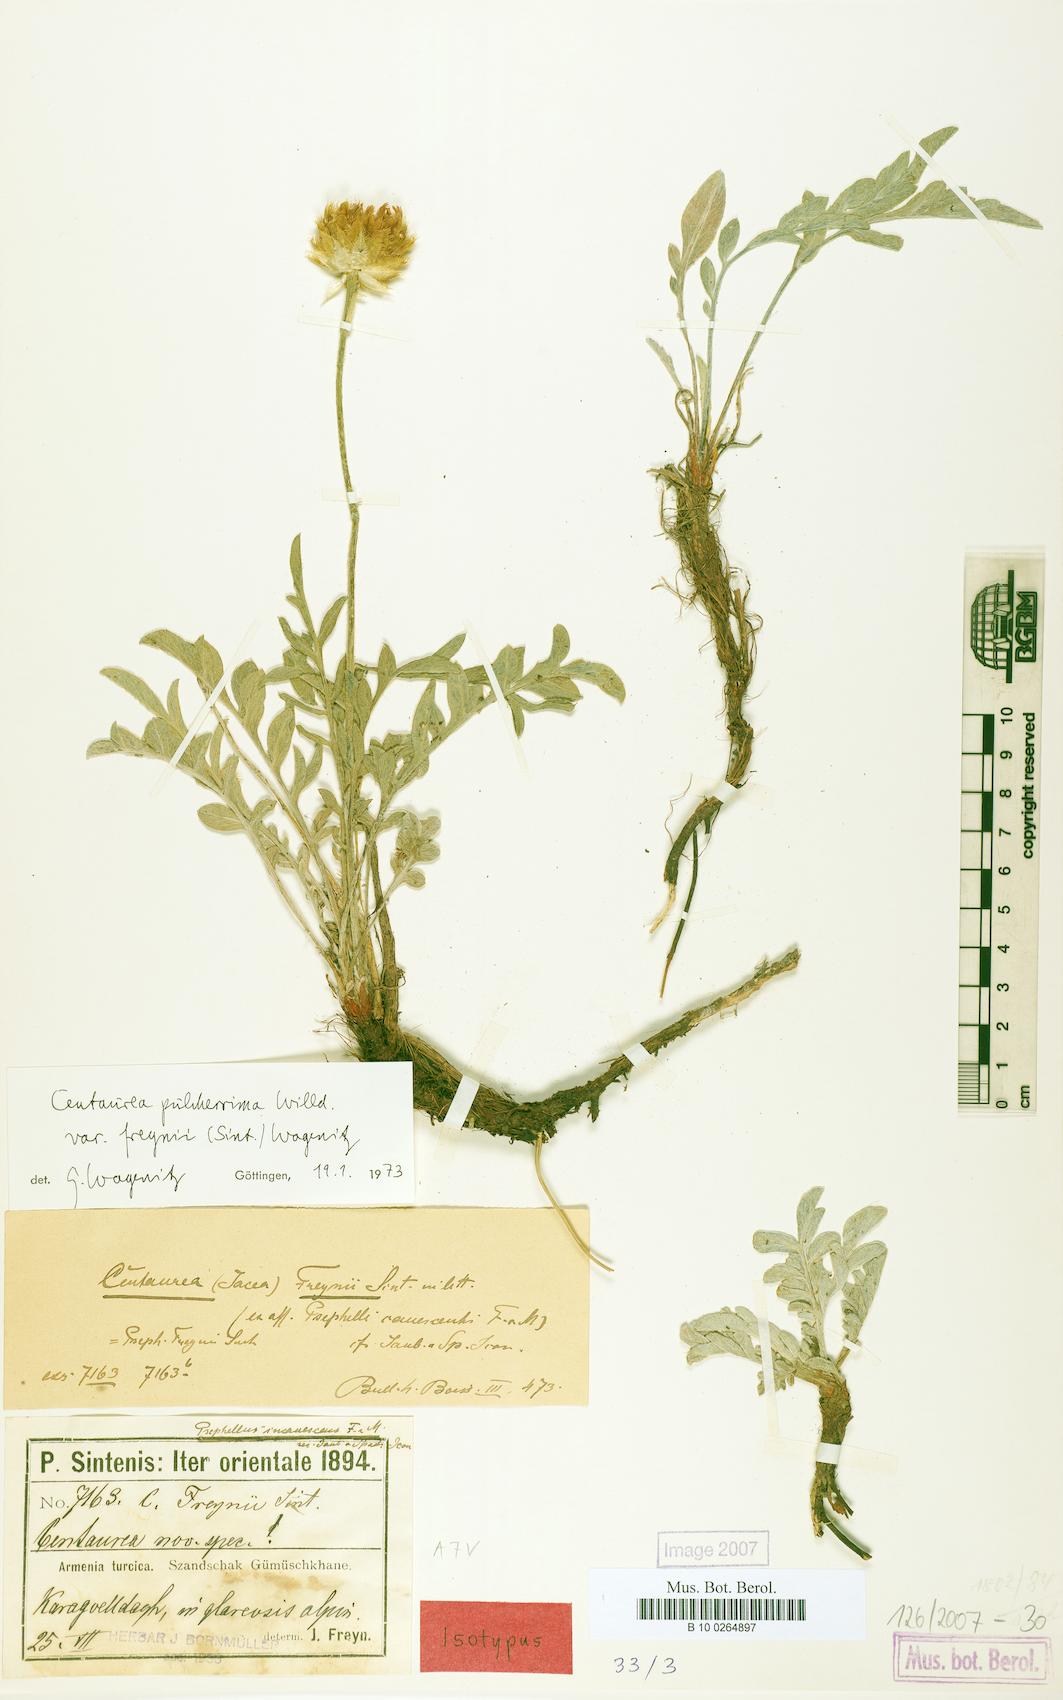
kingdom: Plantae
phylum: Tracheophyta
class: Magnoliopsida
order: Asterales
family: Asteraceae
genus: Psephellus
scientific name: Psephellus pulcherrimus
